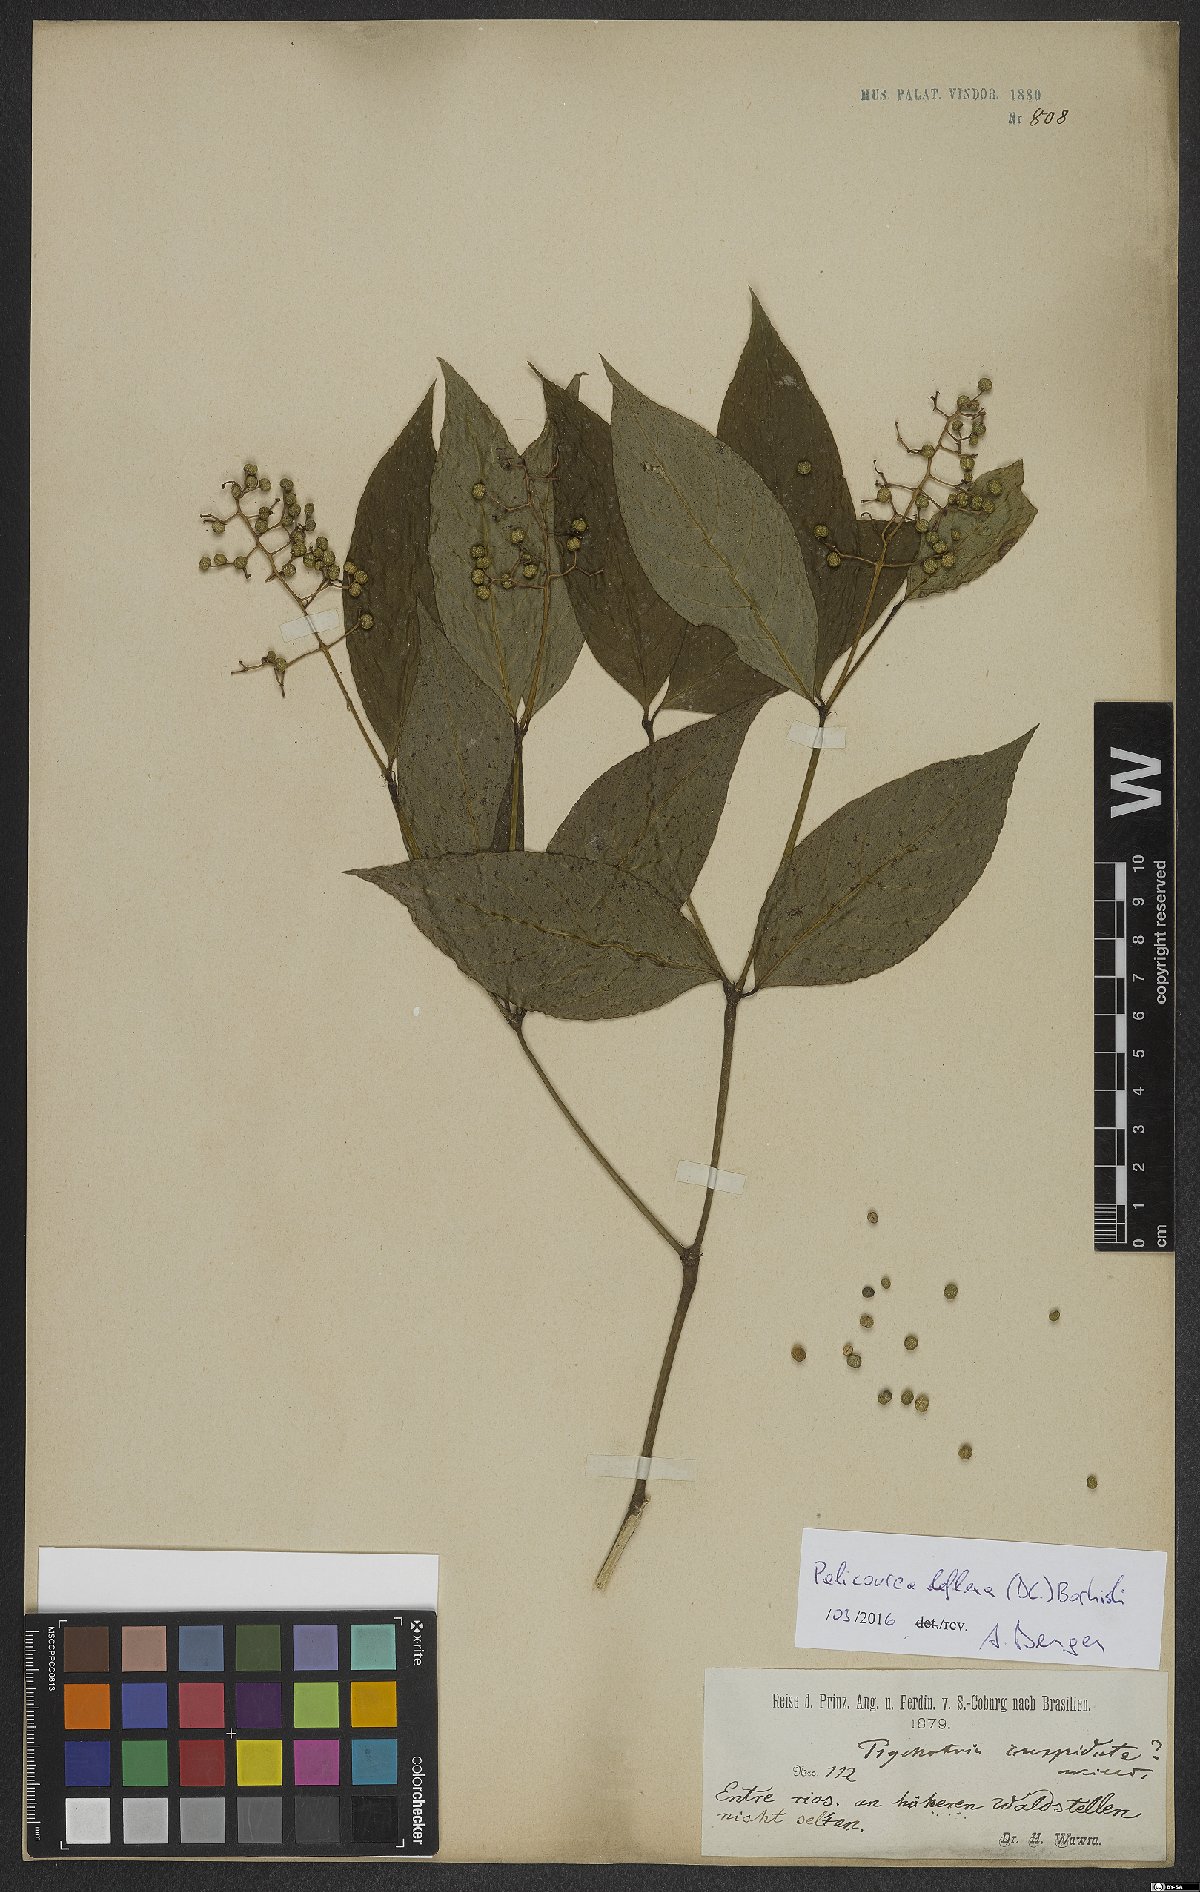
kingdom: Plantae
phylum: Tracheophyta
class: Magnoliopsida
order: Gentianales
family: Rubiaceae
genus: Palicourea
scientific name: Palicourea deflexa
